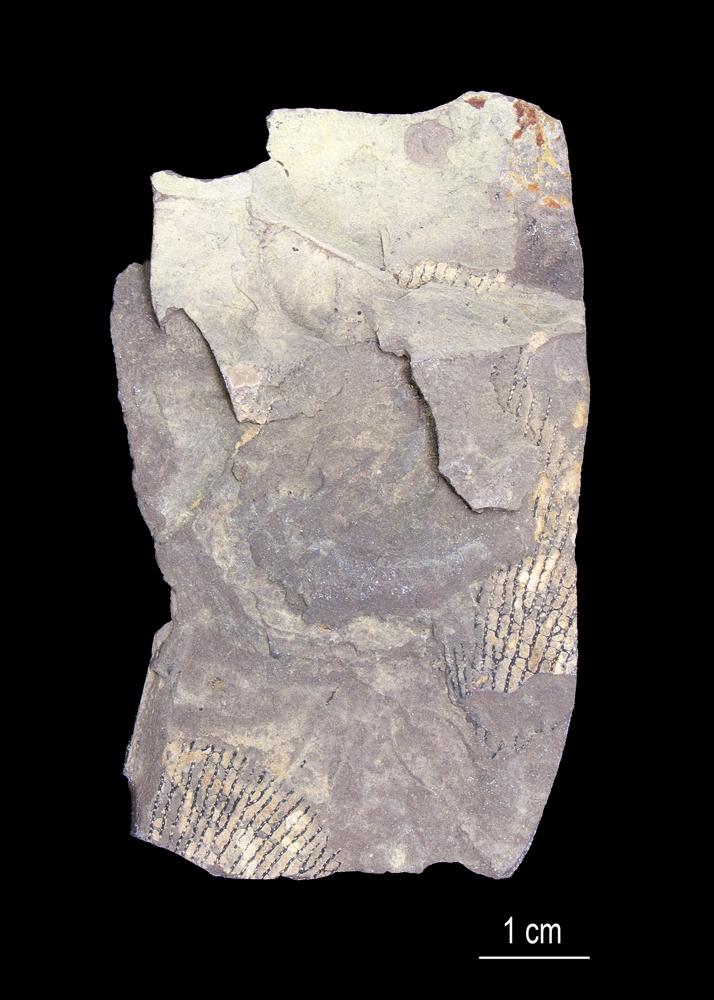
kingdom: Animalia
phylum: Hemichordata
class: Pterobranchia
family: Anisograptidae
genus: Rhabdinopora
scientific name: Rhabdinopora Gorgonia flabelliformis
